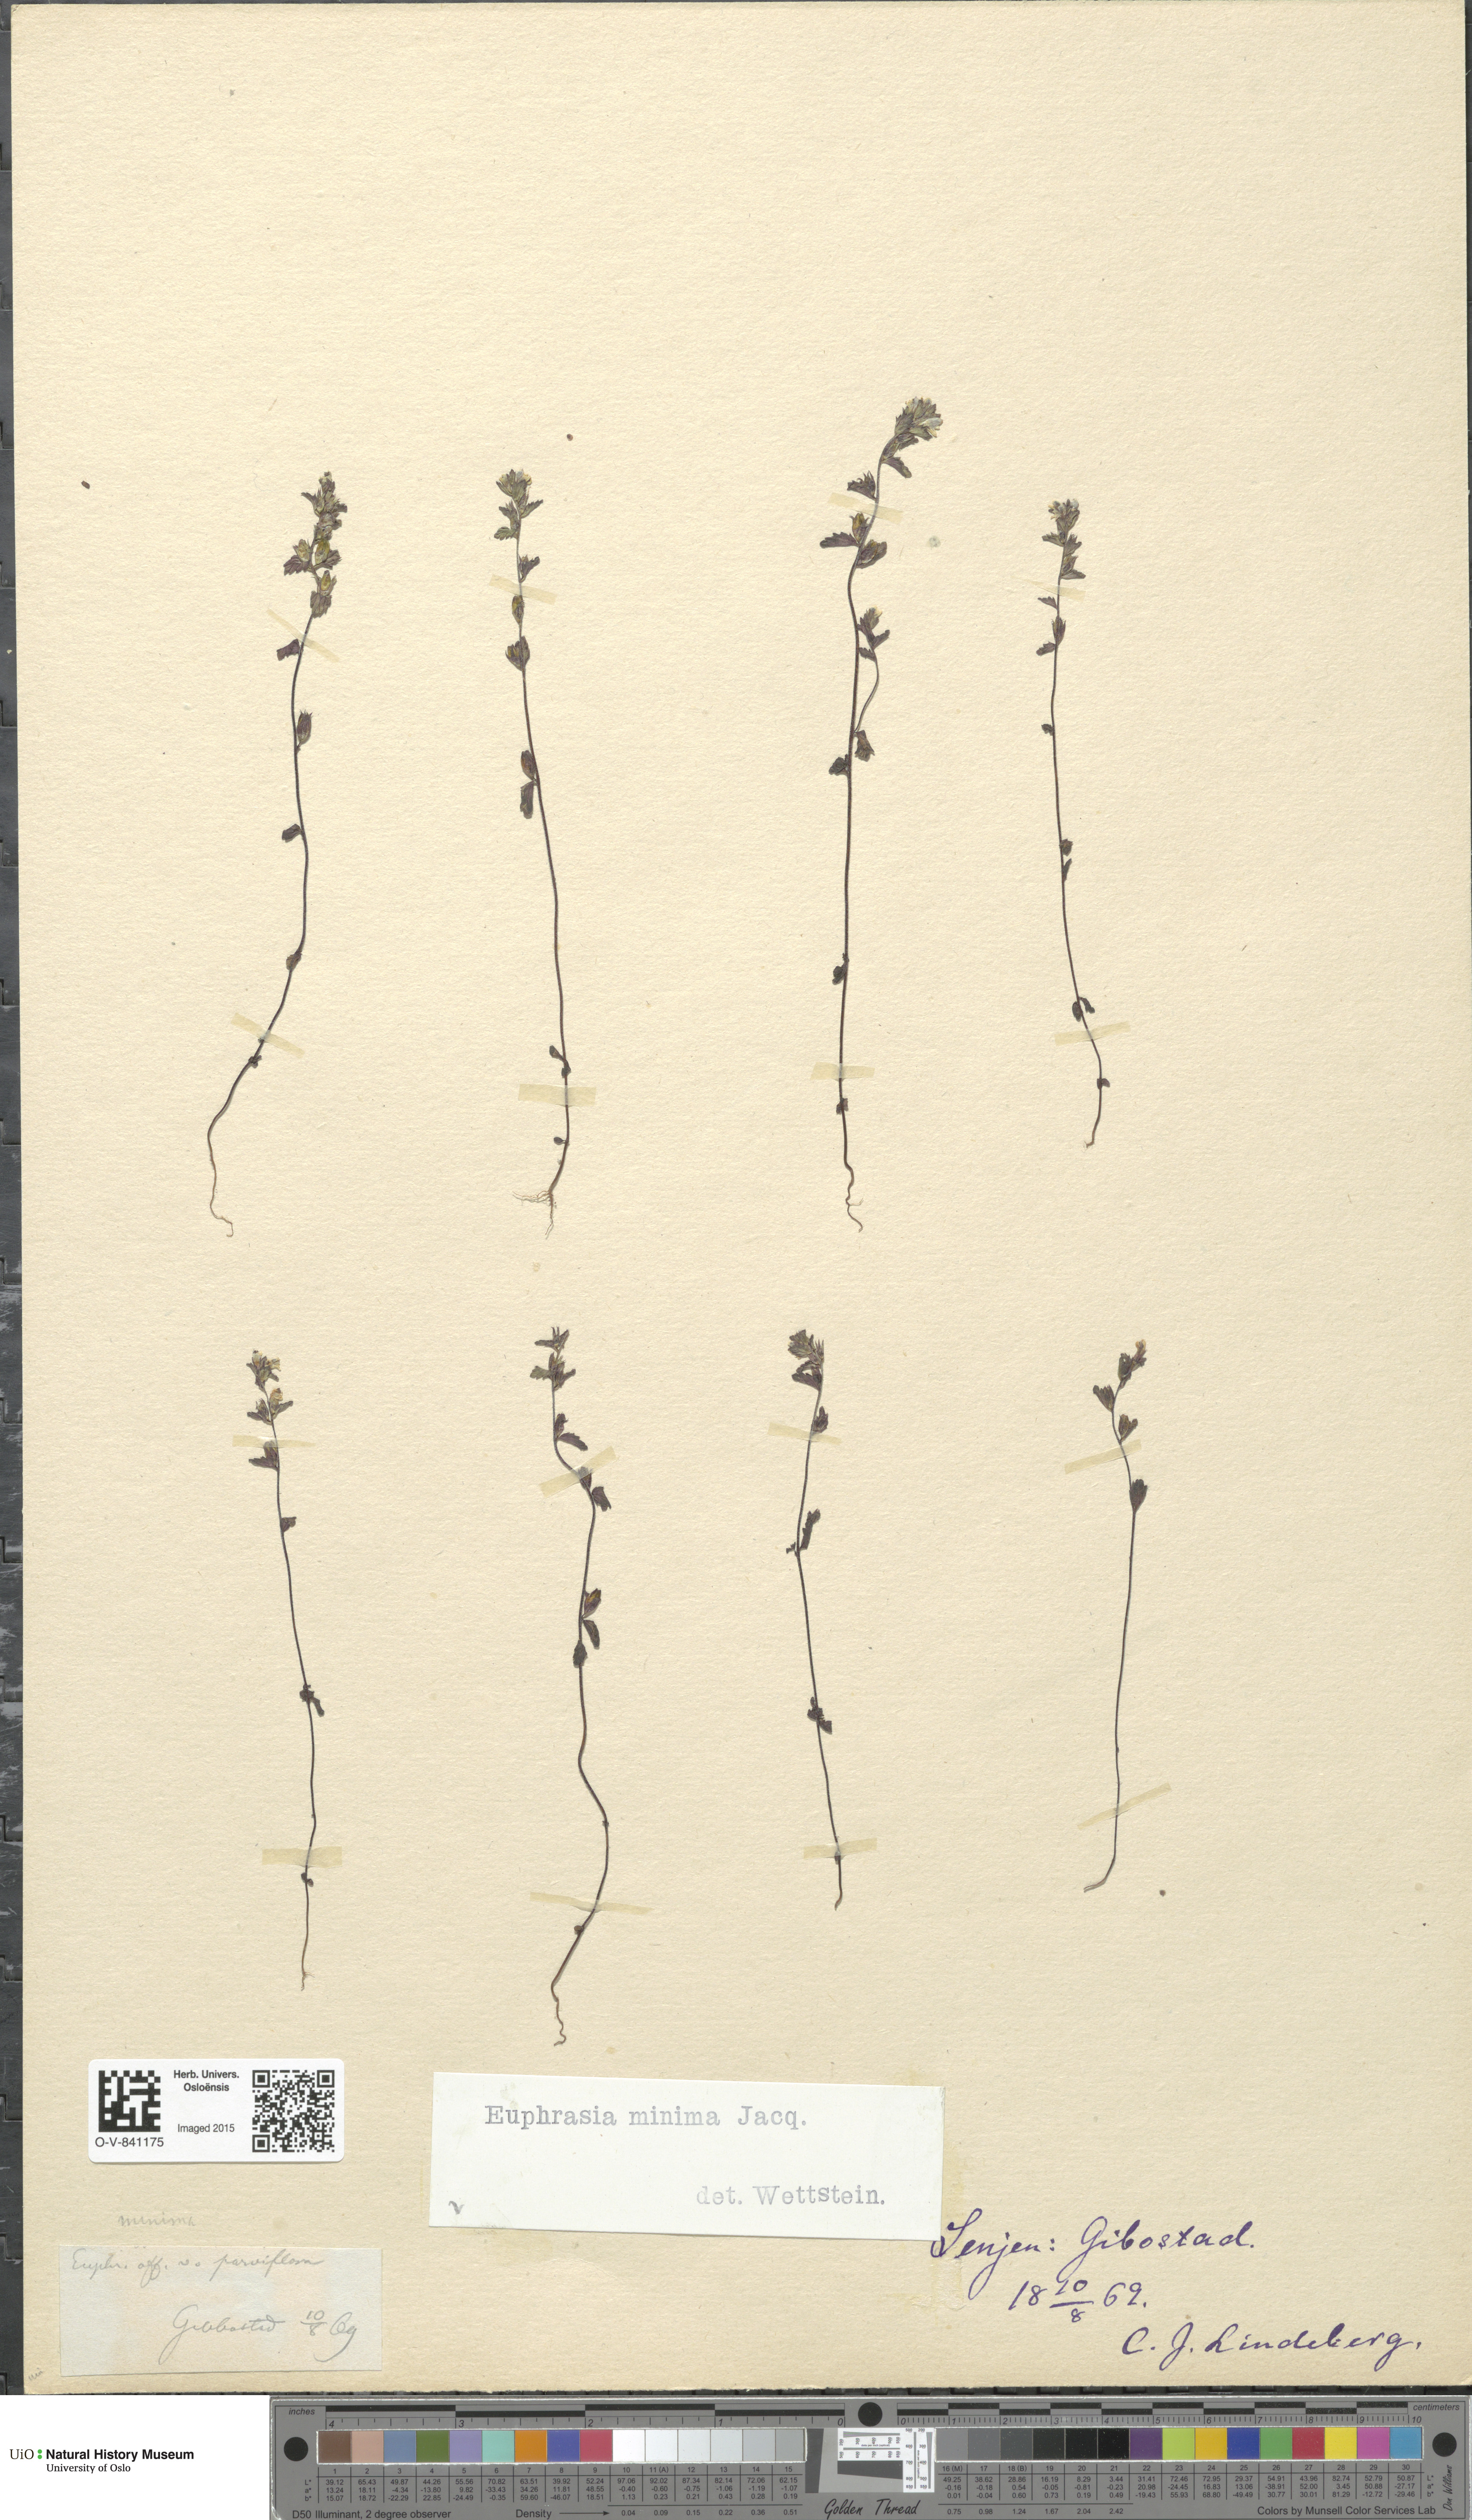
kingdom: Plantae
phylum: Tracheophyta
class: Magnoliopsida
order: Lamiales
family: Orobanchaceae
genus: Euphrasia
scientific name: Euphrasia wettsteinii
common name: Wettstein's eyebright
